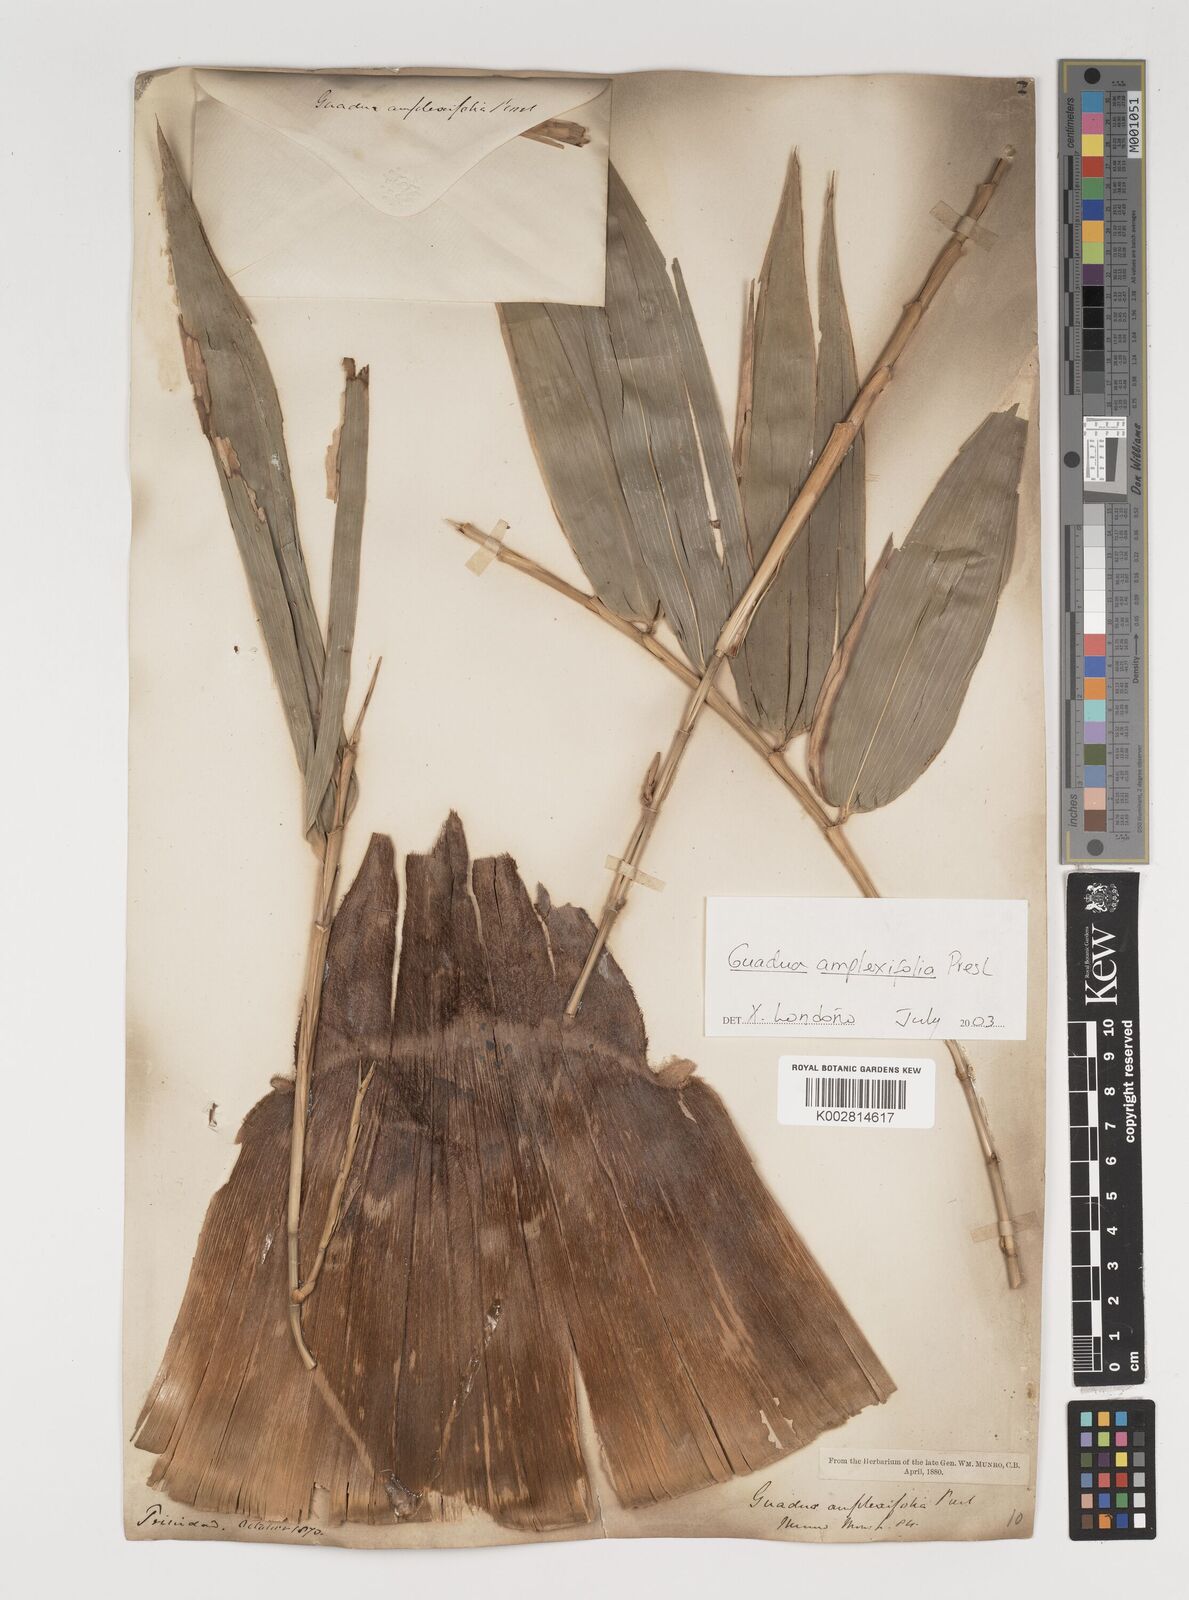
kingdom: Plantae
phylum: Tracheophyta
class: Liliopsida
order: Poales
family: Poaceae
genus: Guadua
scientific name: Guadua amplexifolia
